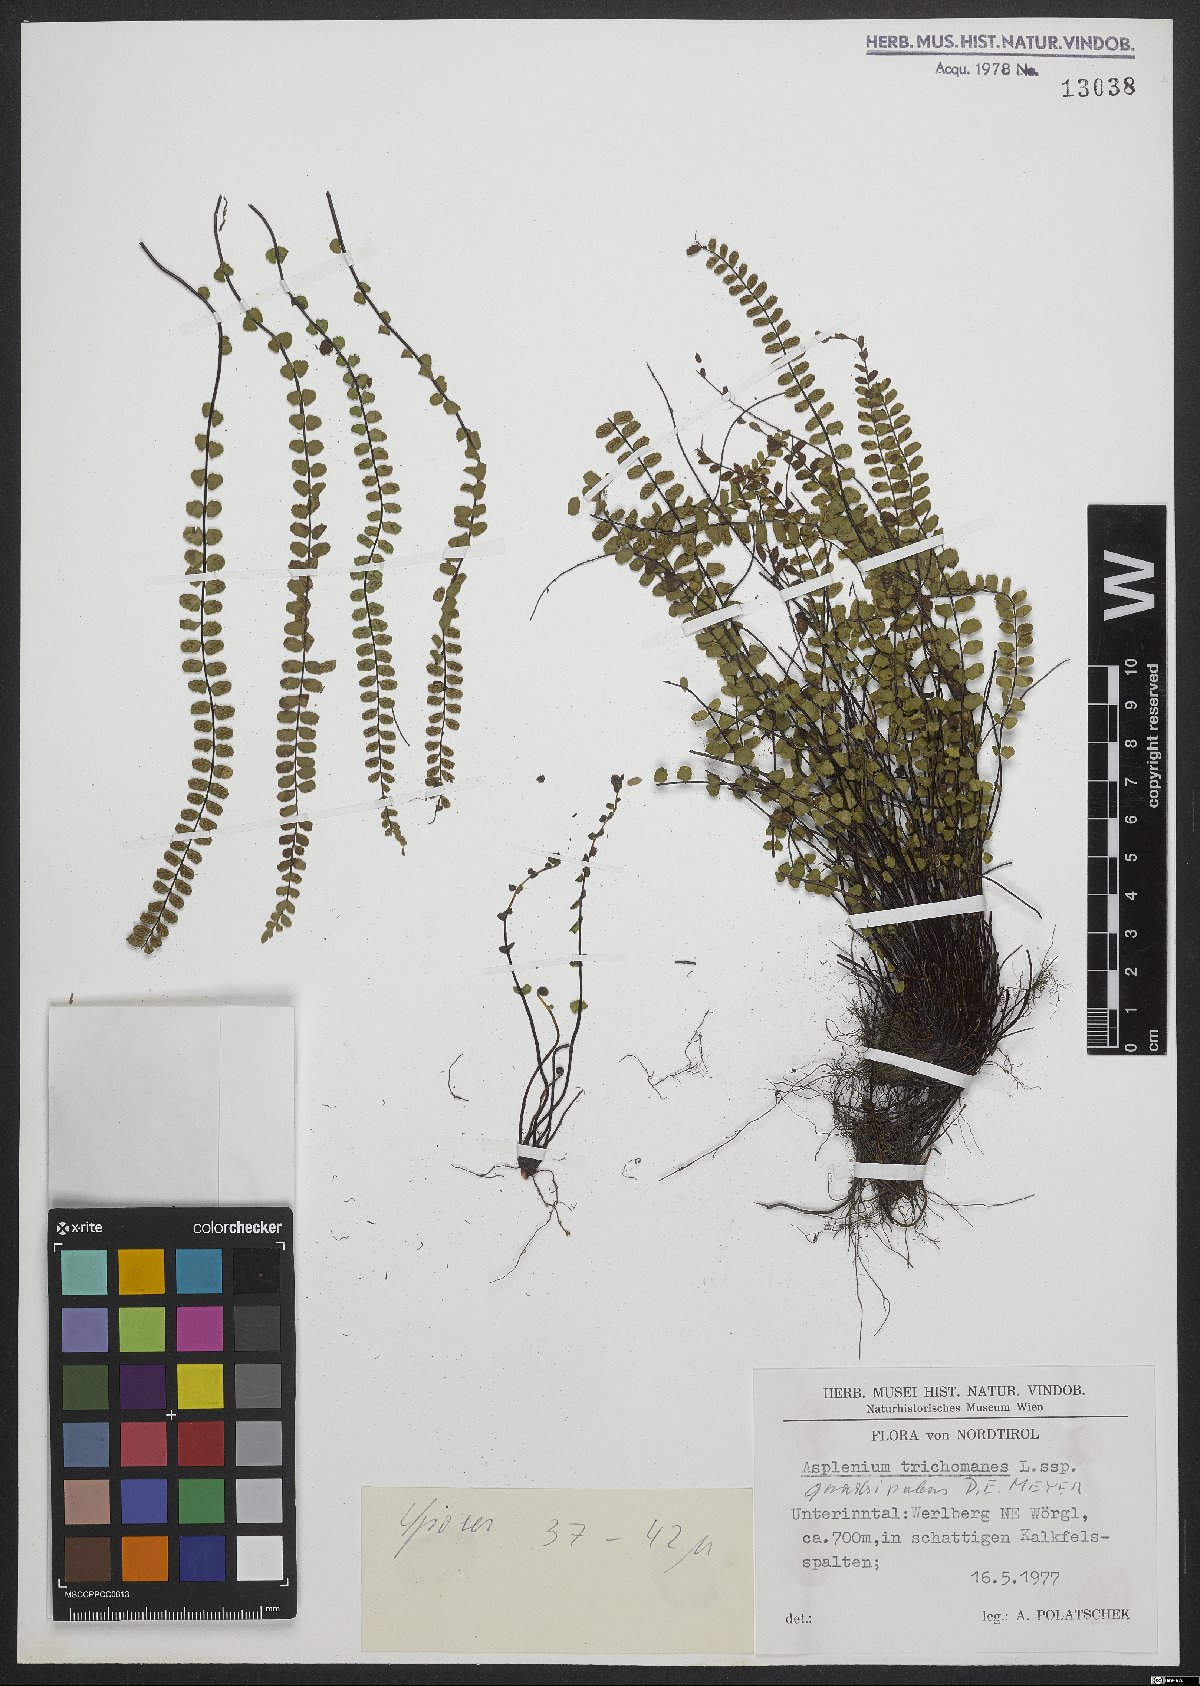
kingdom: Plantae
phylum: Tracheophyta
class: Polypodiopsida
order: Polypodiales
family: Aspleniaceae
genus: Asplenium
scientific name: Asplenium quadrivalens
